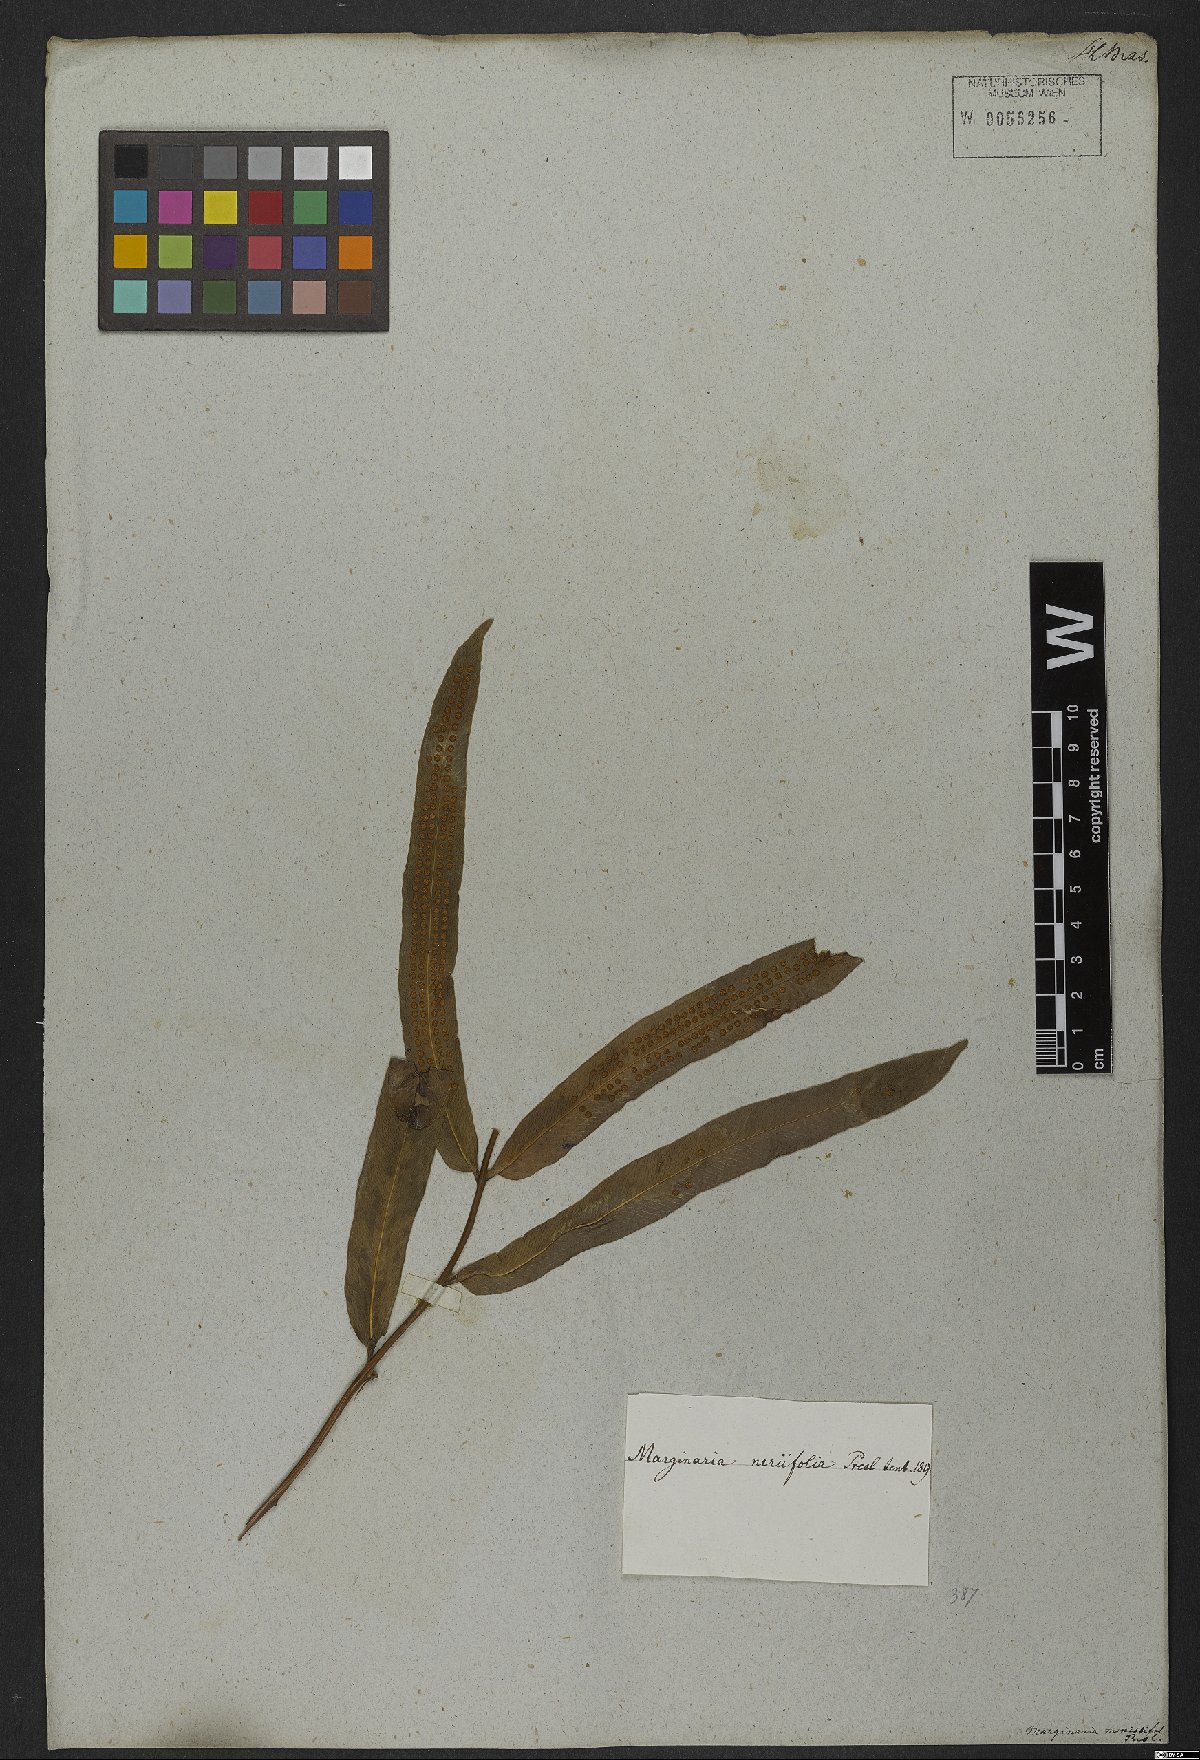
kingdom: Plantae
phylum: Tracheophyta
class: Polypodiopsida
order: Polypodiales
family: Polypodiaceae
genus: Serpocaulon
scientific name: Serpocaulon triseriale
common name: Angle-vein fern
